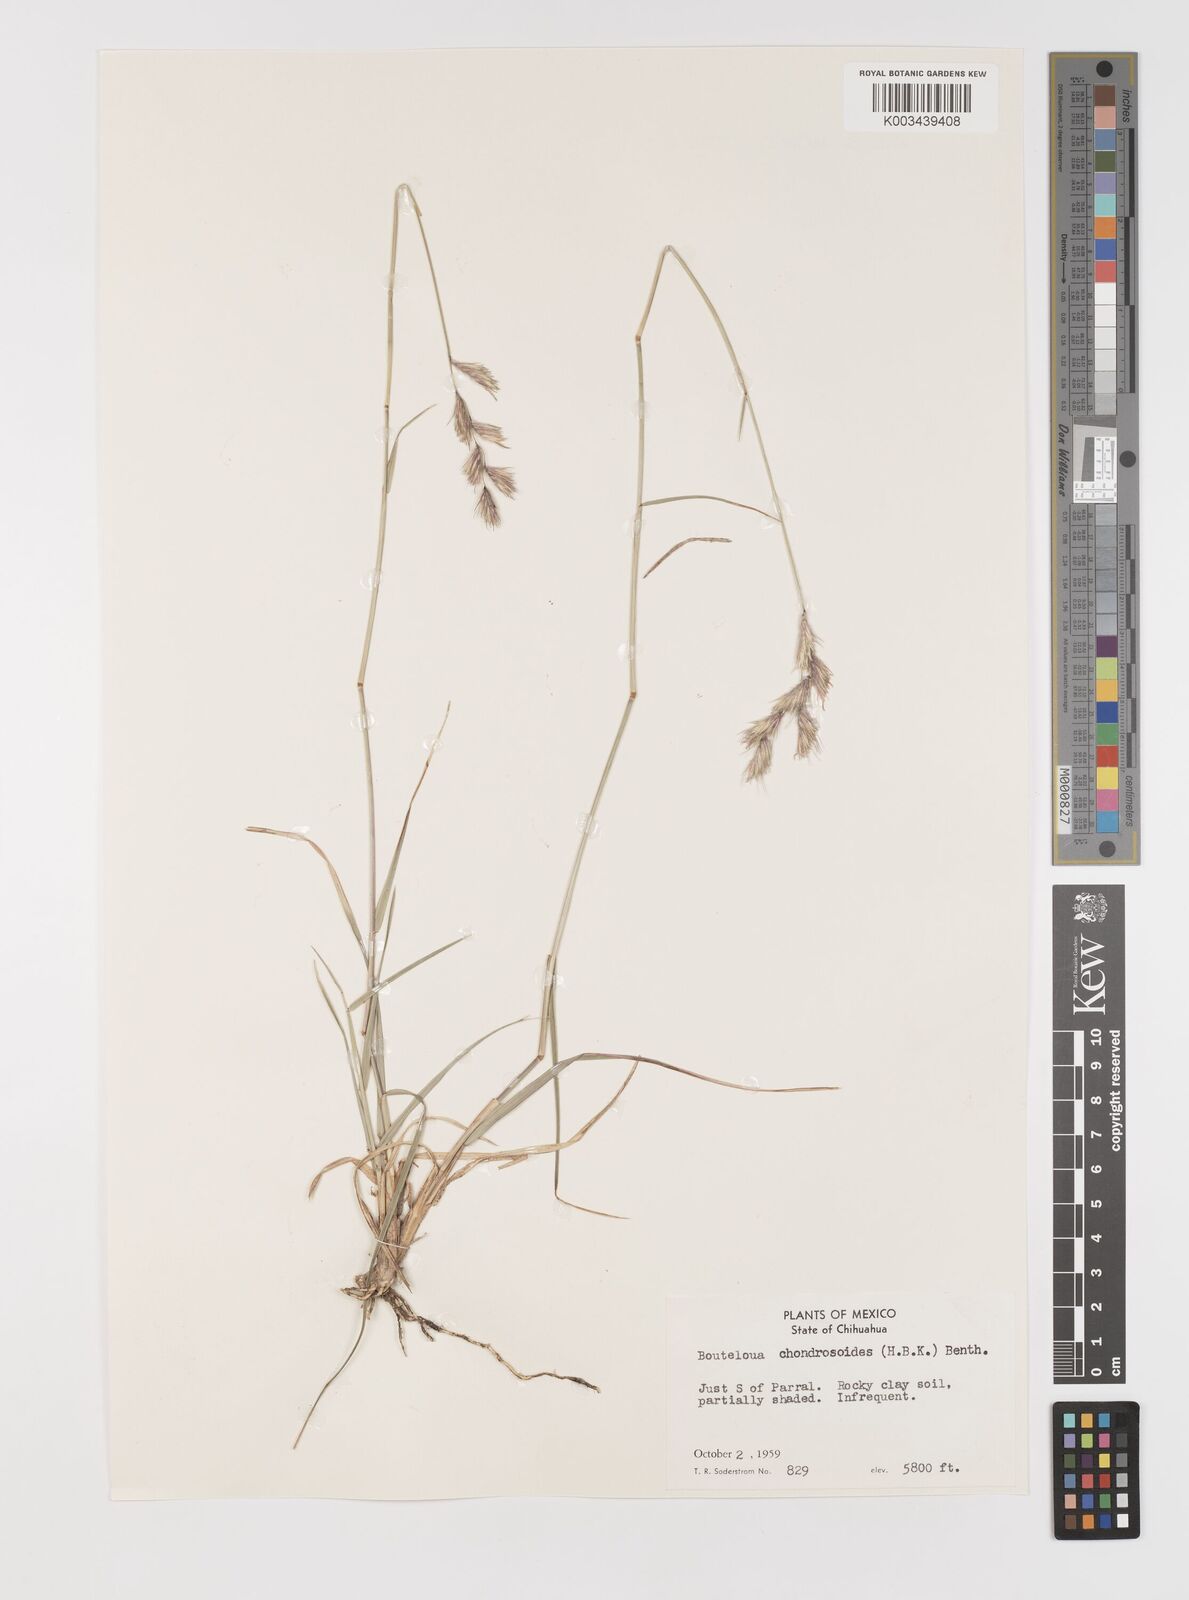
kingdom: Plantae
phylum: Tracheophyta
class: Liliopsida
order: Poales
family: Poaceae
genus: Bouteloua
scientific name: Bouteloua chondrosioides
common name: Sprucetop grama
